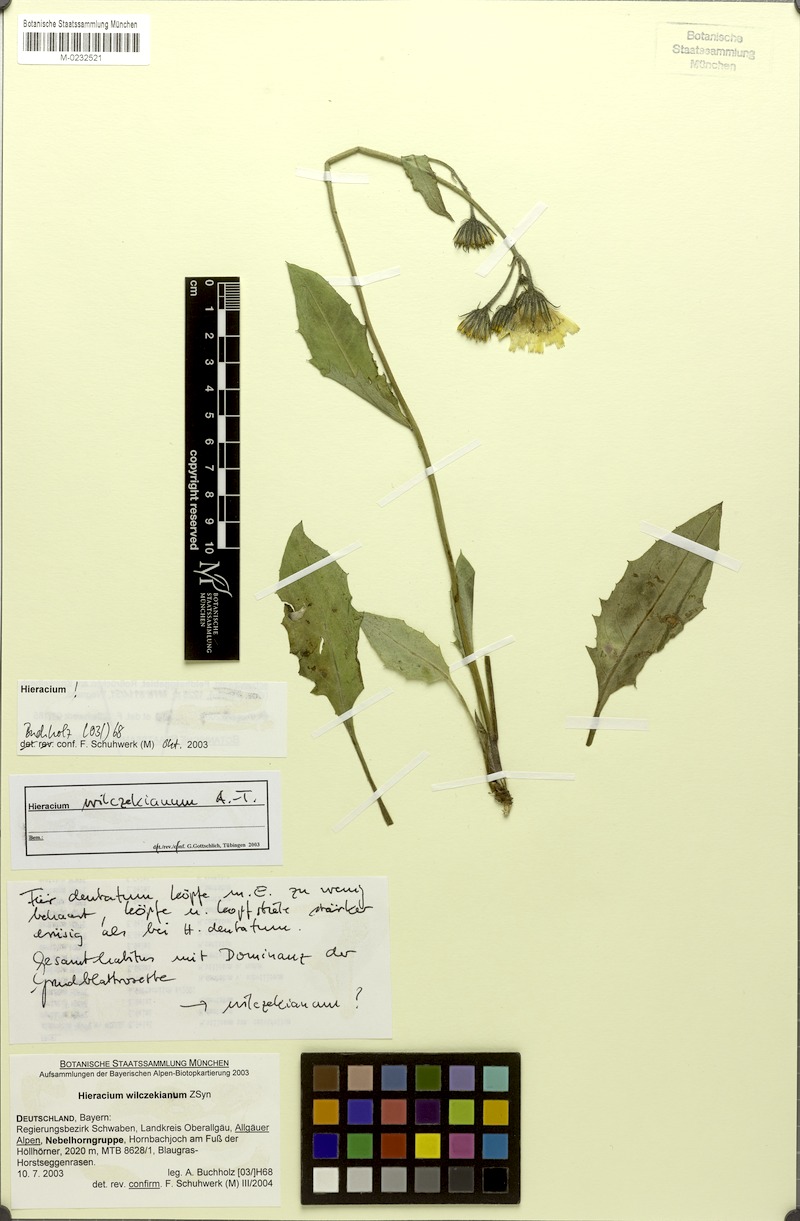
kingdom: Plantae
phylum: Tracheophyta
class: Magnoliopsida
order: Asterales
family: Asteraceae
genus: Hieracium
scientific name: Hieracium wilczekianum
